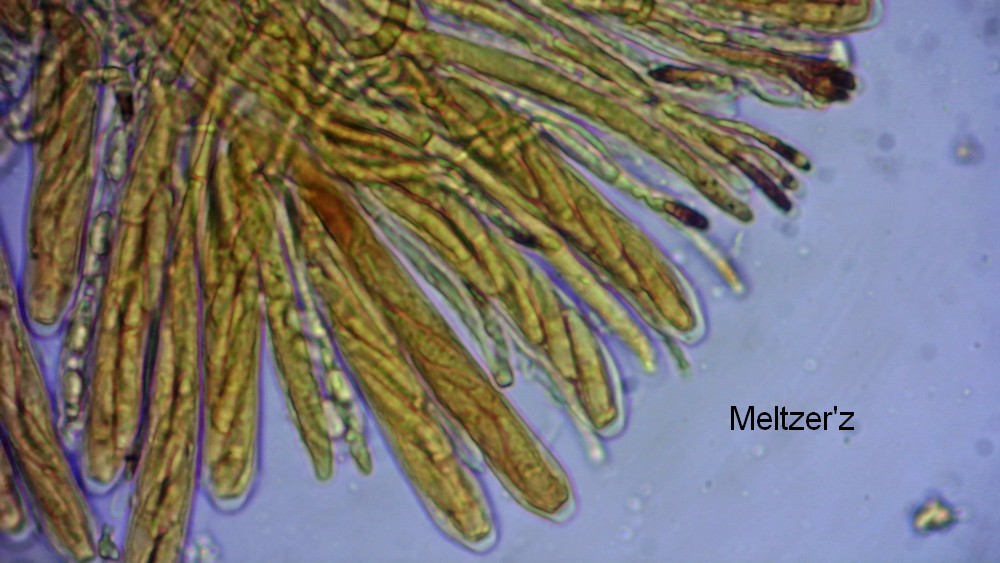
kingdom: Fungi
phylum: Ascomycota
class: Leotiomycetes
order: Helotiales
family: Helotiaceae
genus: Hymenoscyphus
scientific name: Hymenoscyphus caudatus
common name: blad-stilkskive
